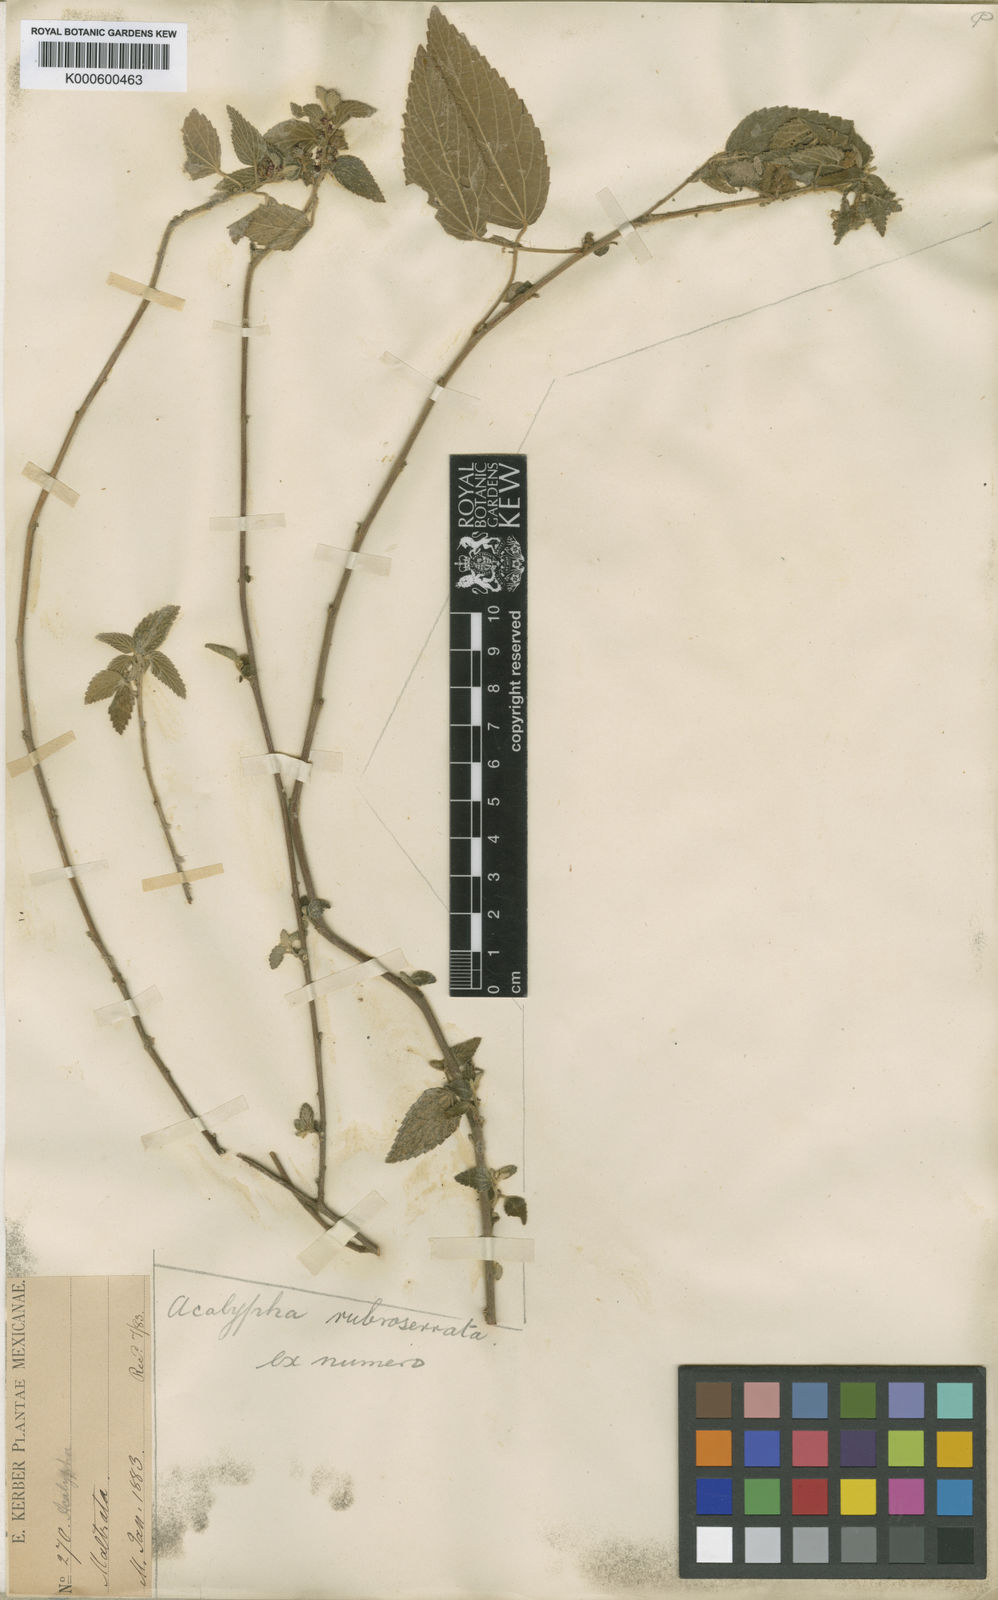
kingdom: Plantae
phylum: Tracheophyta
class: Magnoliopsida
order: Malpighiales
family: Euphorbiaceae
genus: Acalypha
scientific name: Acalypha rubroserrata
